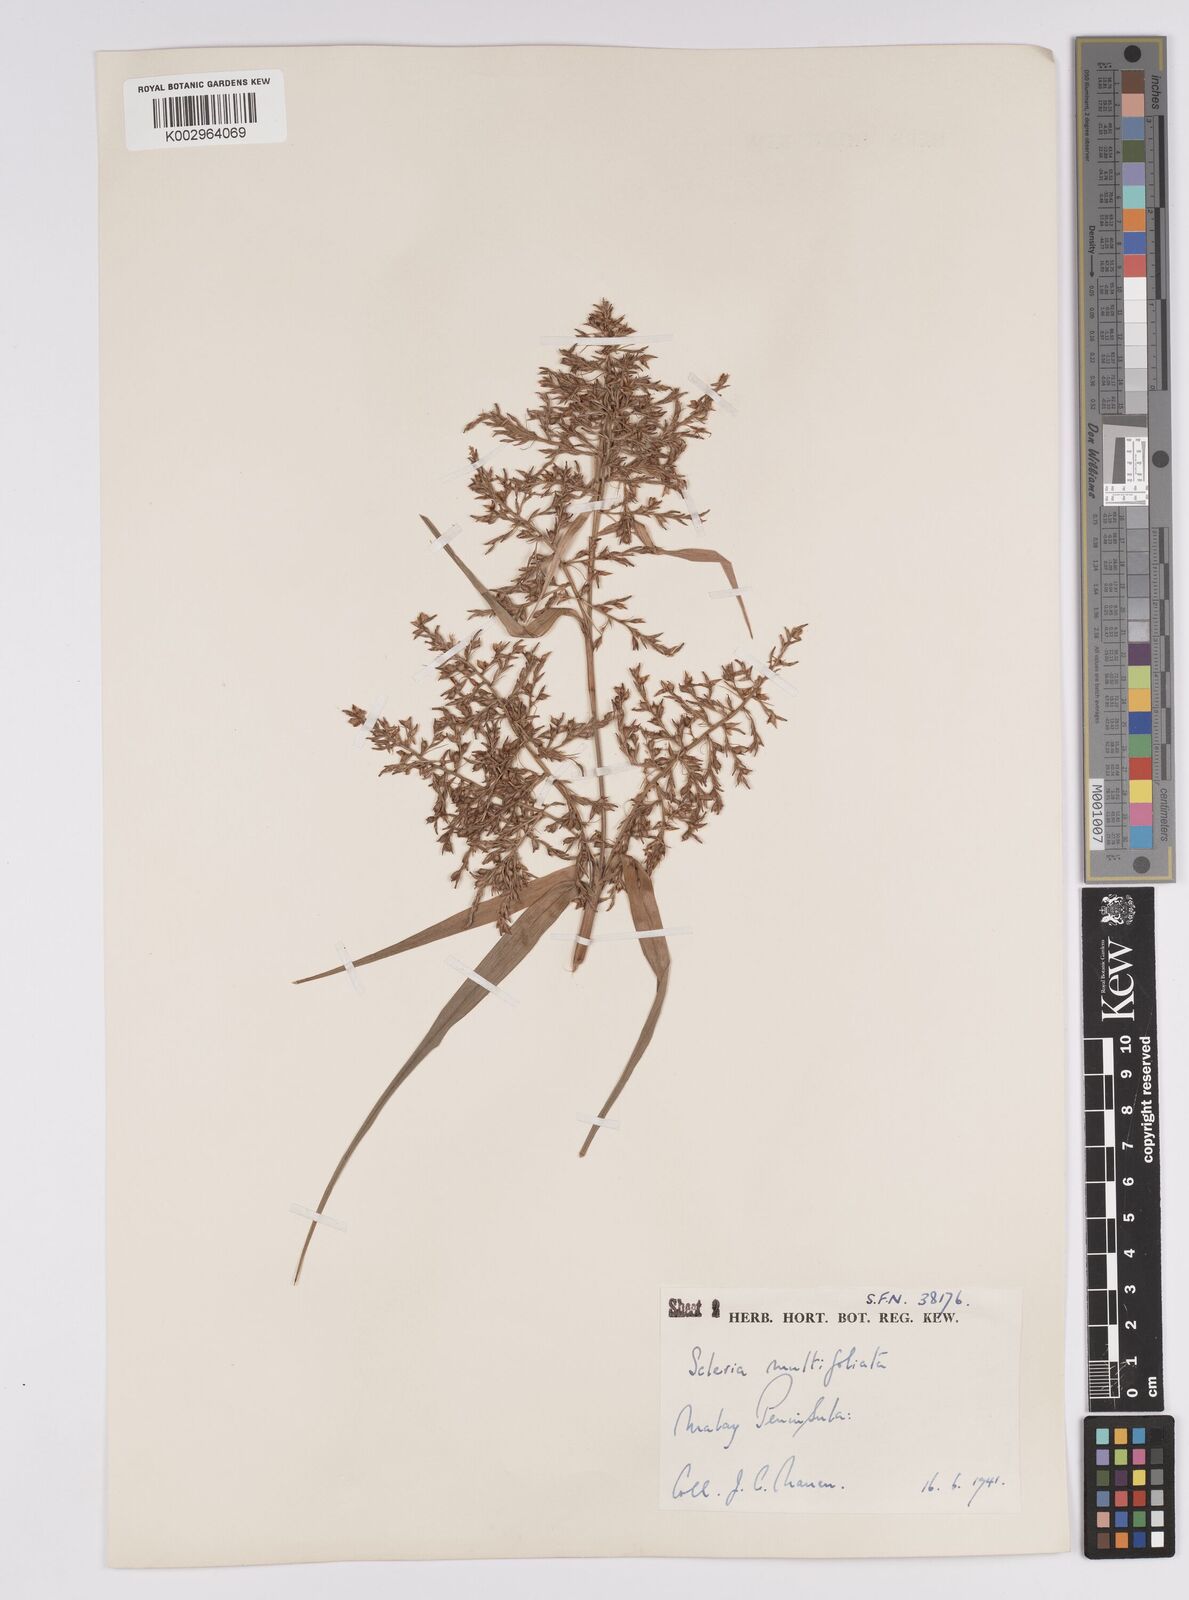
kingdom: Plantae
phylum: Tracheophyta
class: Liliopsida
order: Poales
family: Cyperaceae
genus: Scleria
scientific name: Scleria purpurascens
